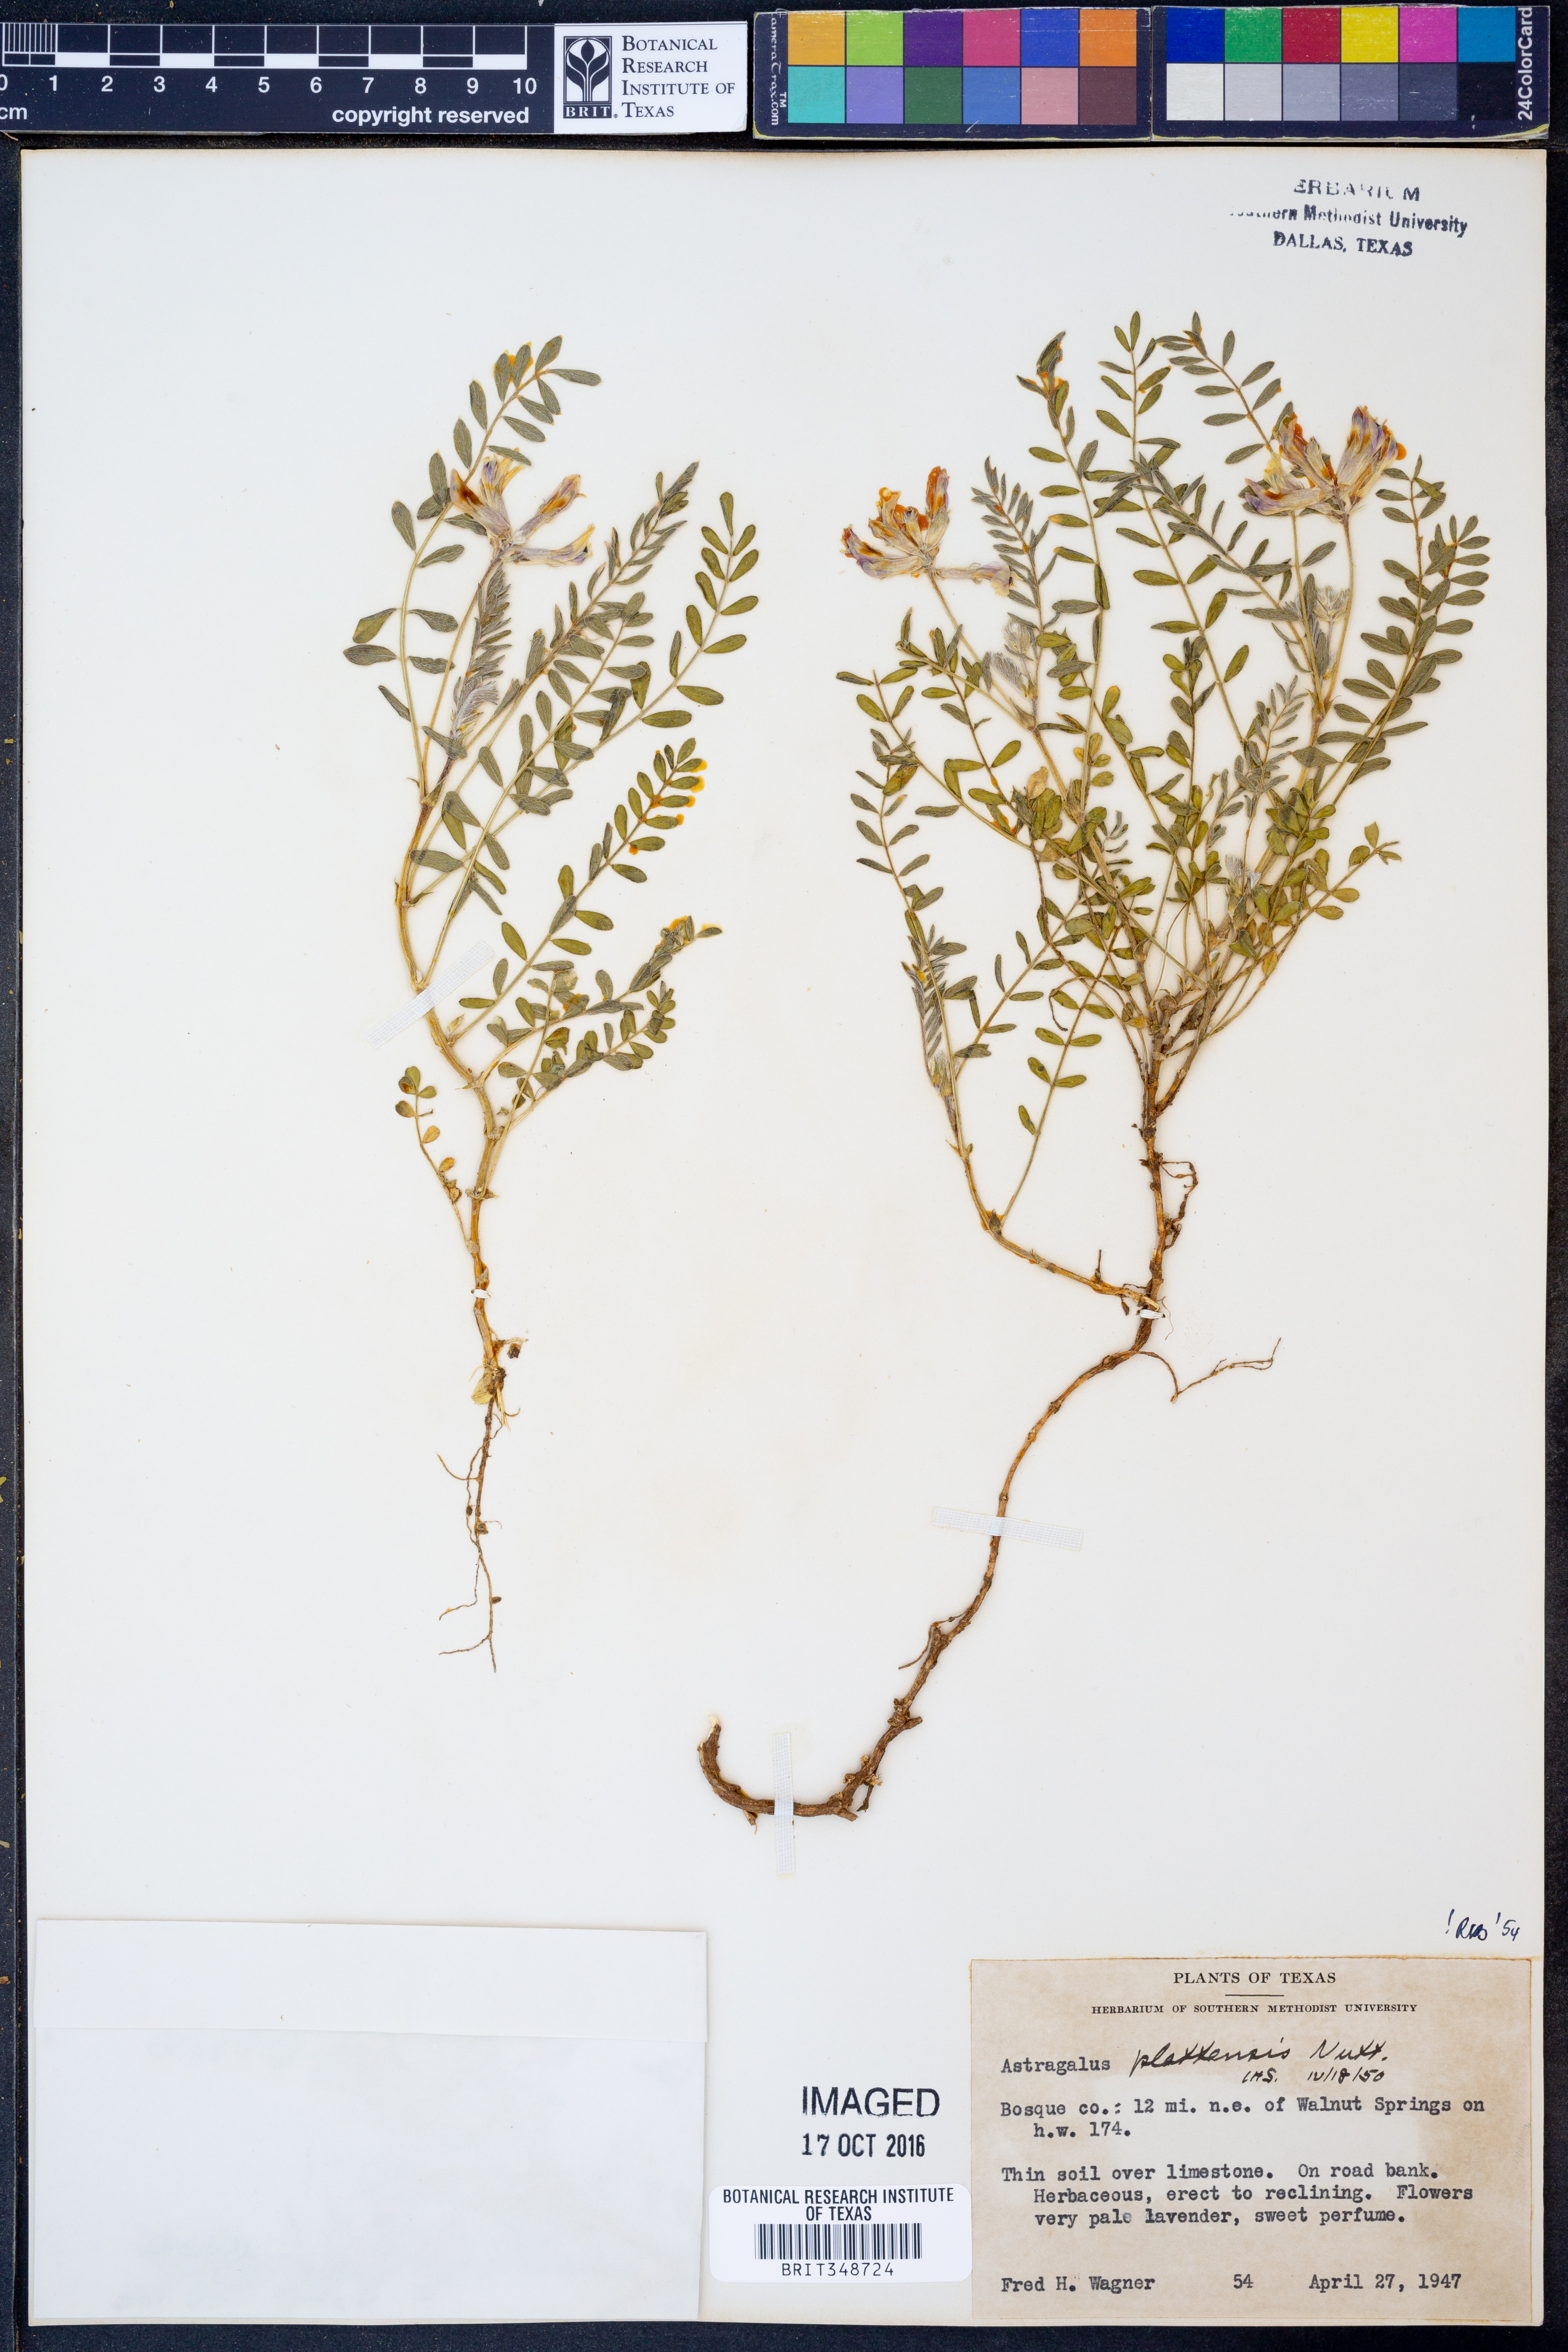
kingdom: Plantae
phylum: Tracheophyta
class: Magnoliopsida
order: Fabales
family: Fabaceae
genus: Astragalus
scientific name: Astragalus plattensis
